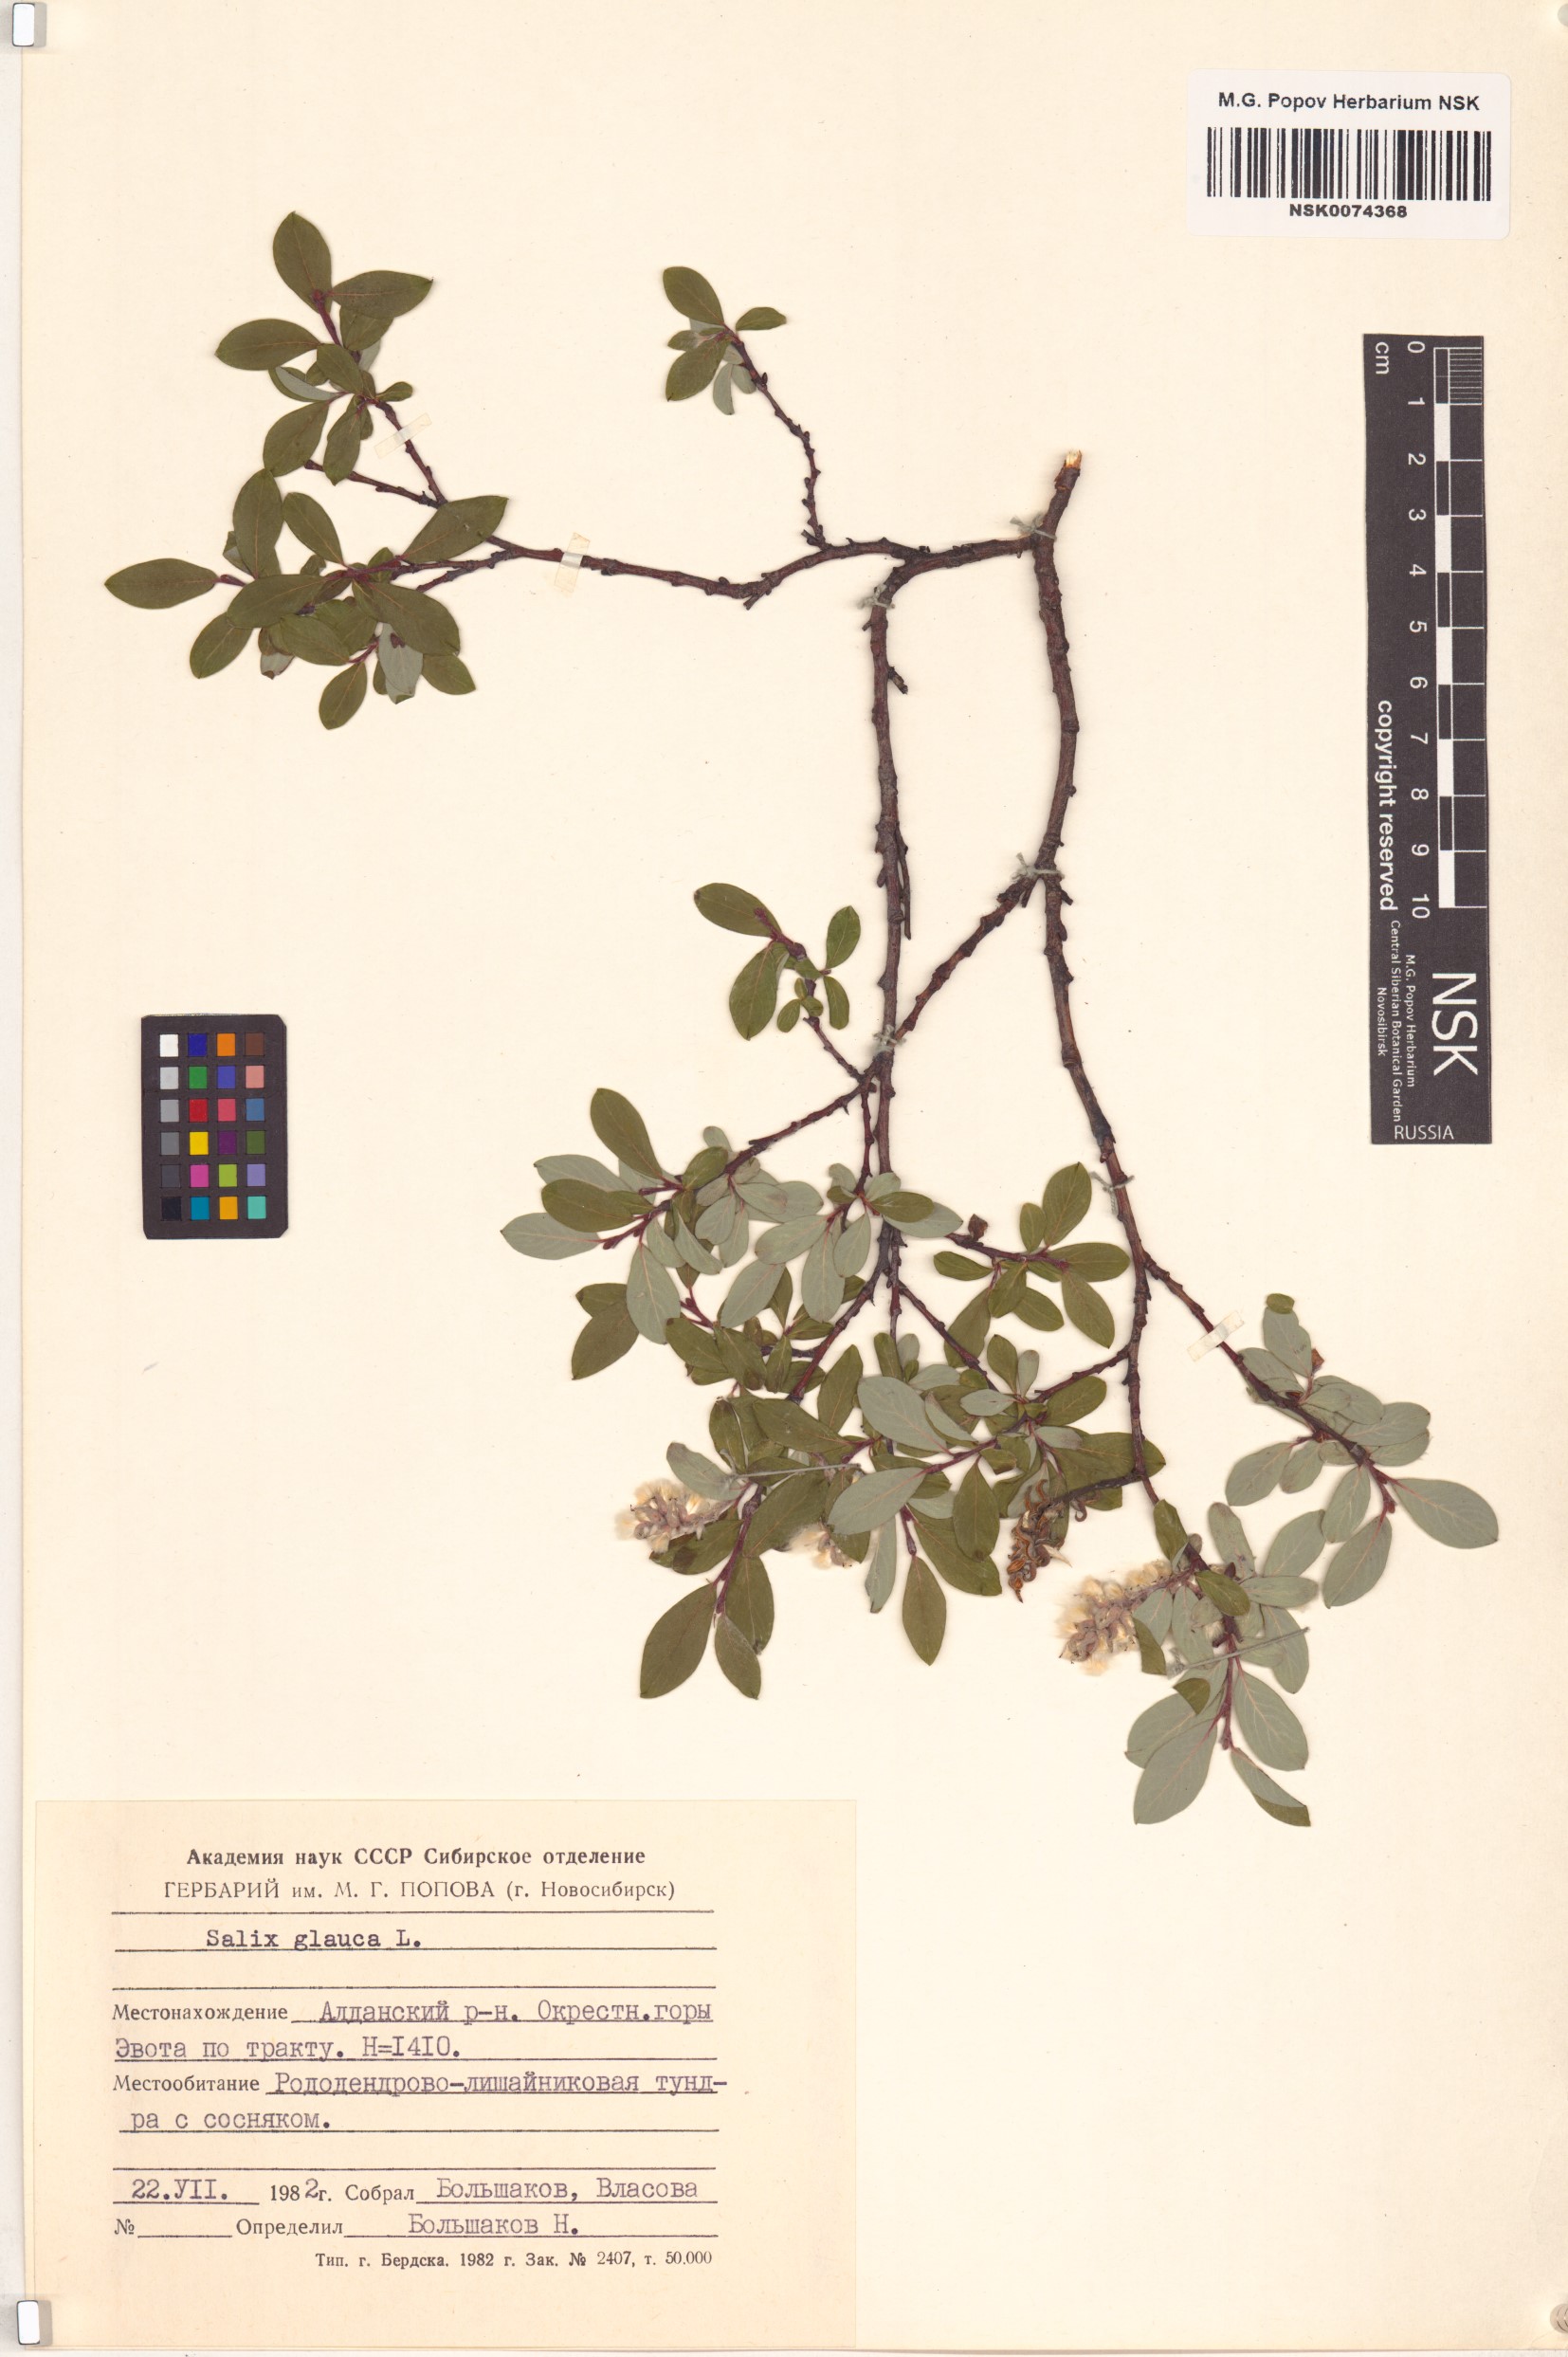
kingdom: Plantae
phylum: Tracheophyta
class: Magnoliopsida
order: Malpighiales
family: Salicaceae
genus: Salix
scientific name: Salix glauca
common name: Glaucous willow
